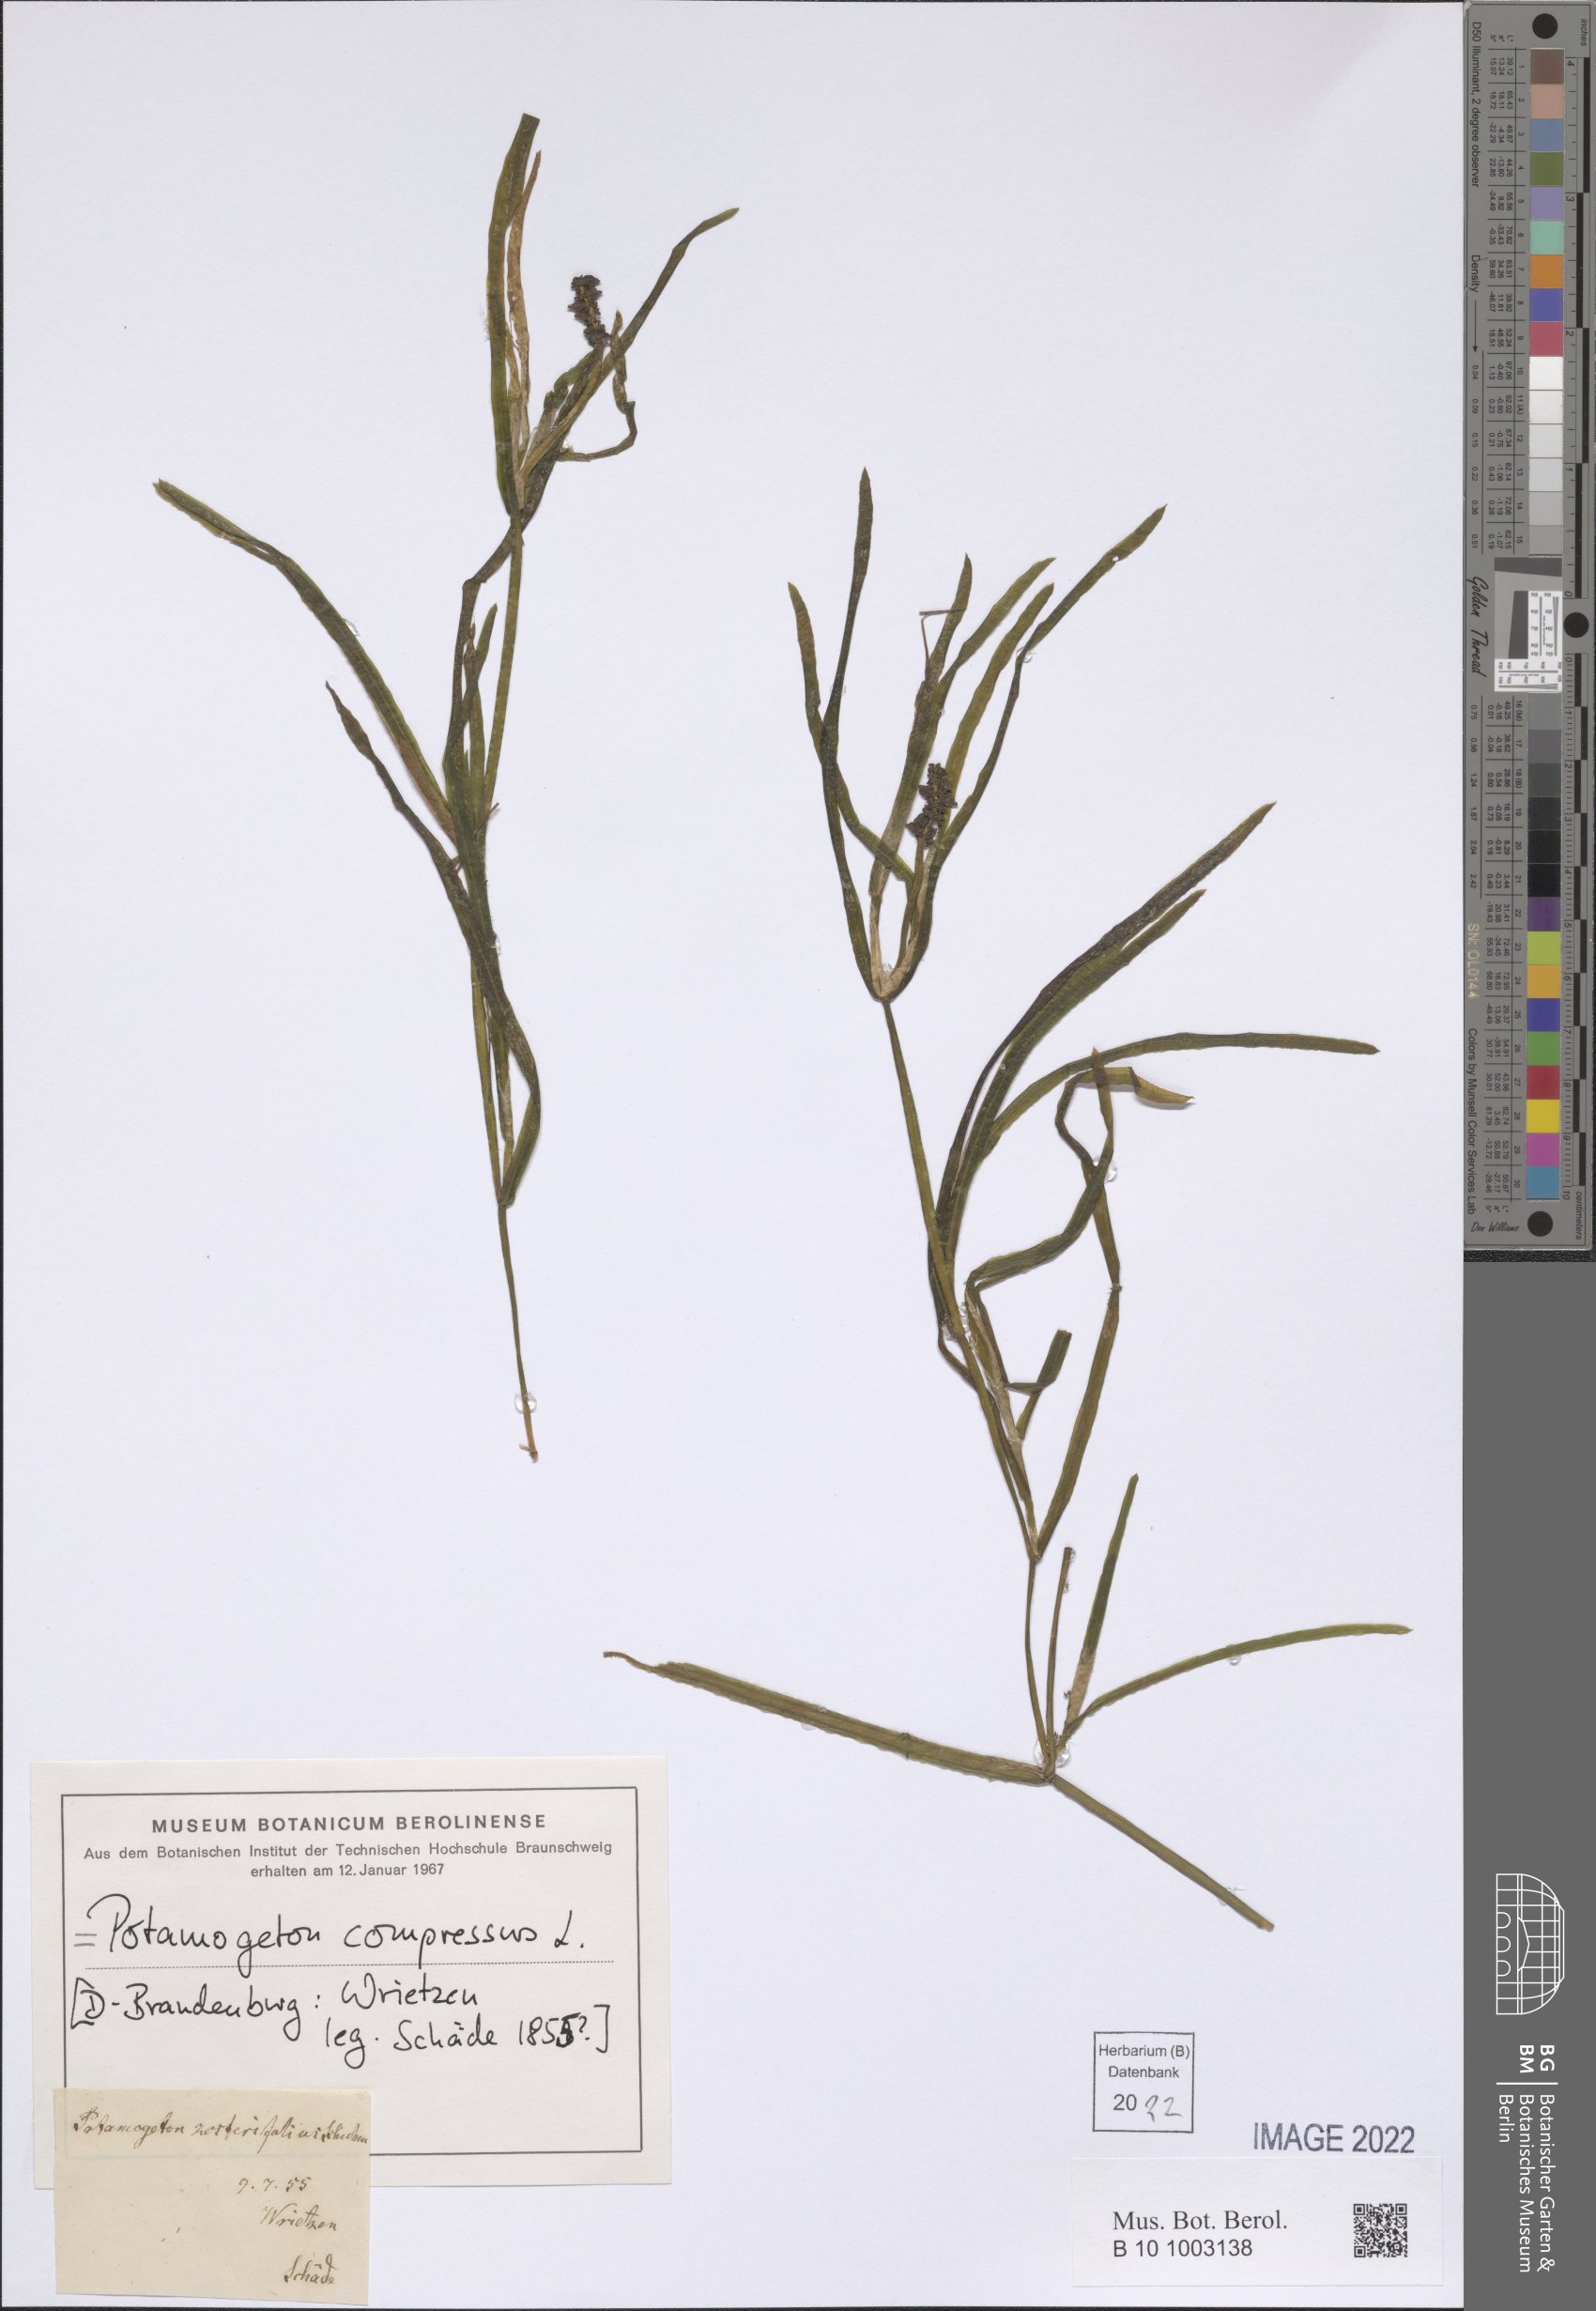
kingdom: Plantae
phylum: Tracheophyta
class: Liliopsida
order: Alismatales
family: Potamogetonaceae
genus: Potamogeton
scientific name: Potamogeton compressus
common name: Grass-wrack pondweed
